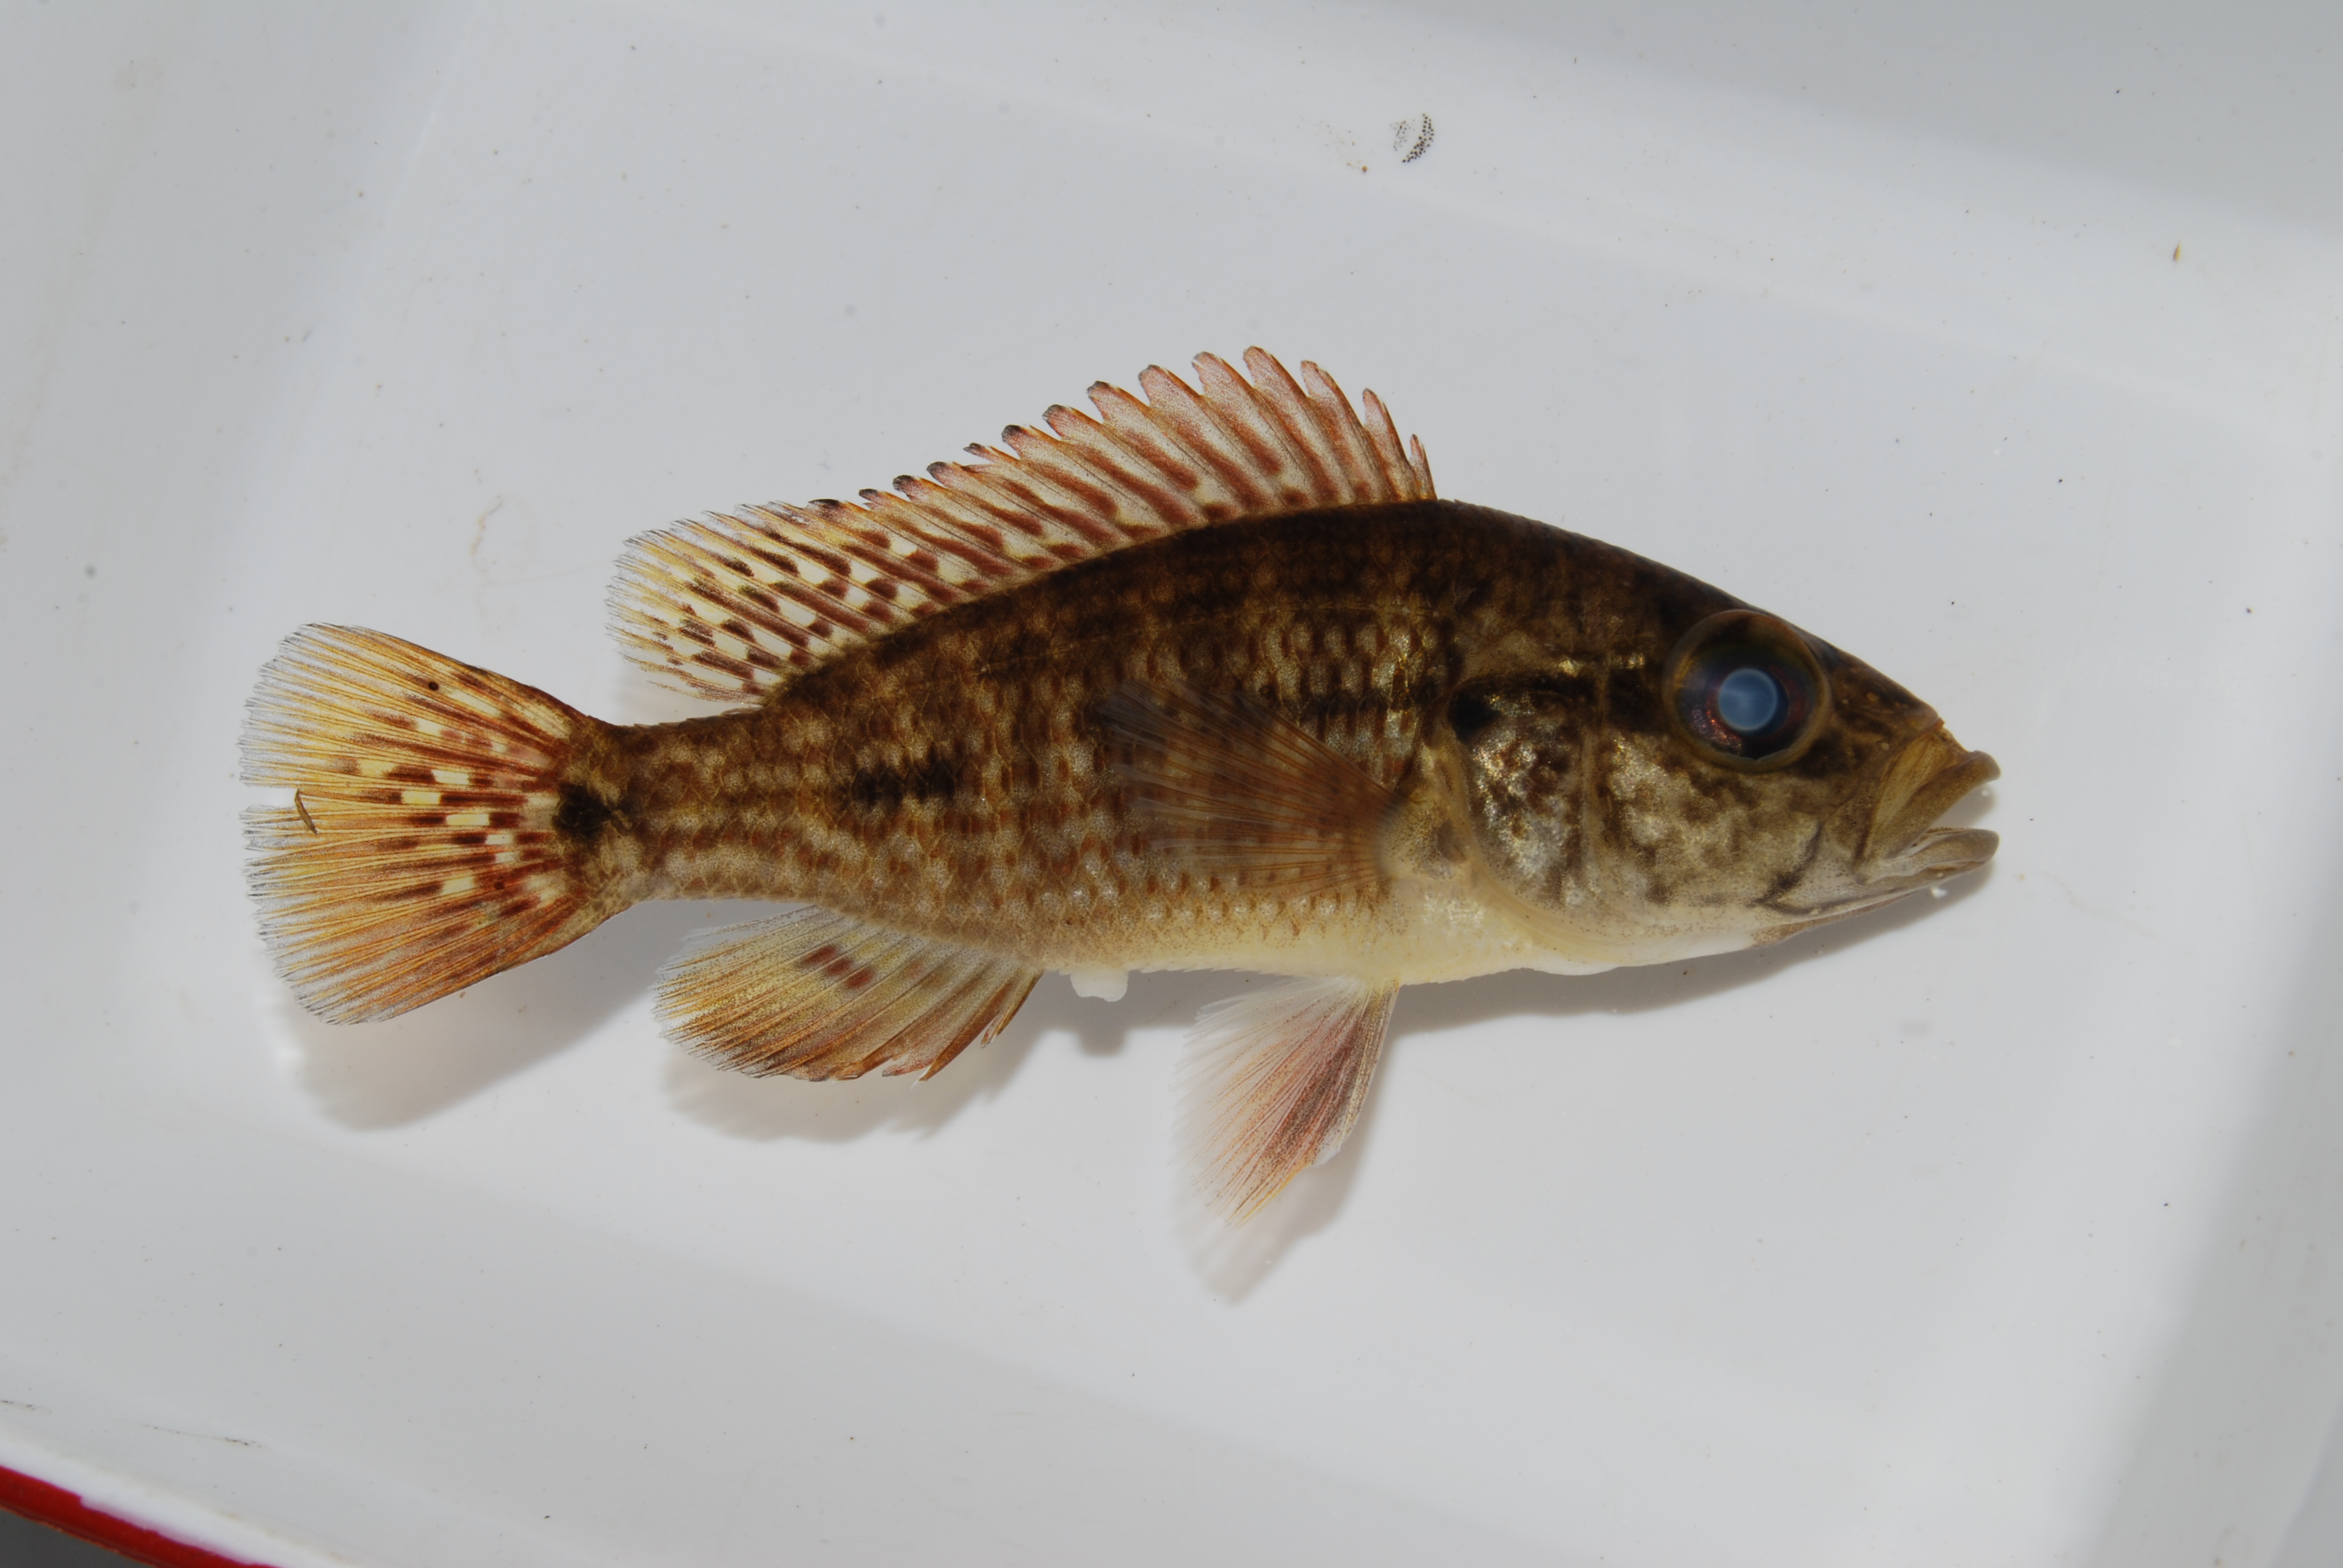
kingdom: Animalia
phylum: Chordata
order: Perciformes
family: Cichlidae
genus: Sargochromis
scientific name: Sargochromis
